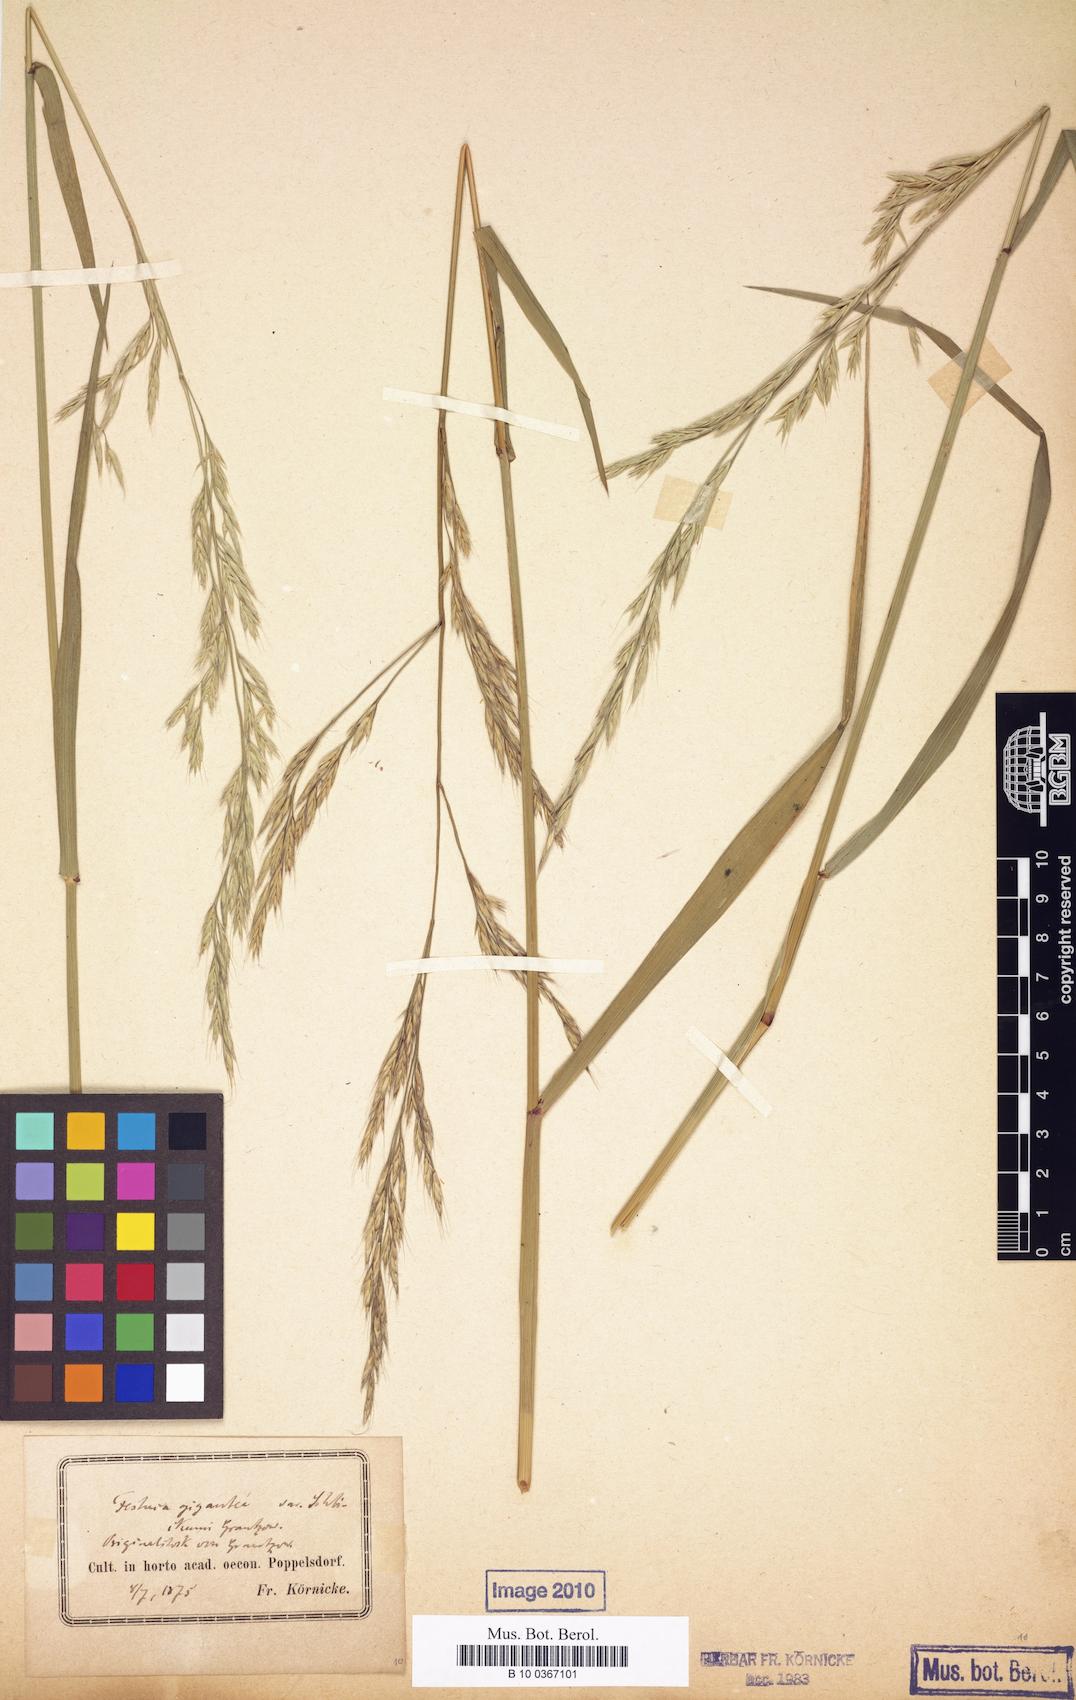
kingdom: Plantae
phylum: Tracheophyta
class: Liliopsida
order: Poales
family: Poaceae
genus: Lolium
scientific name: Lolium schlickumii
